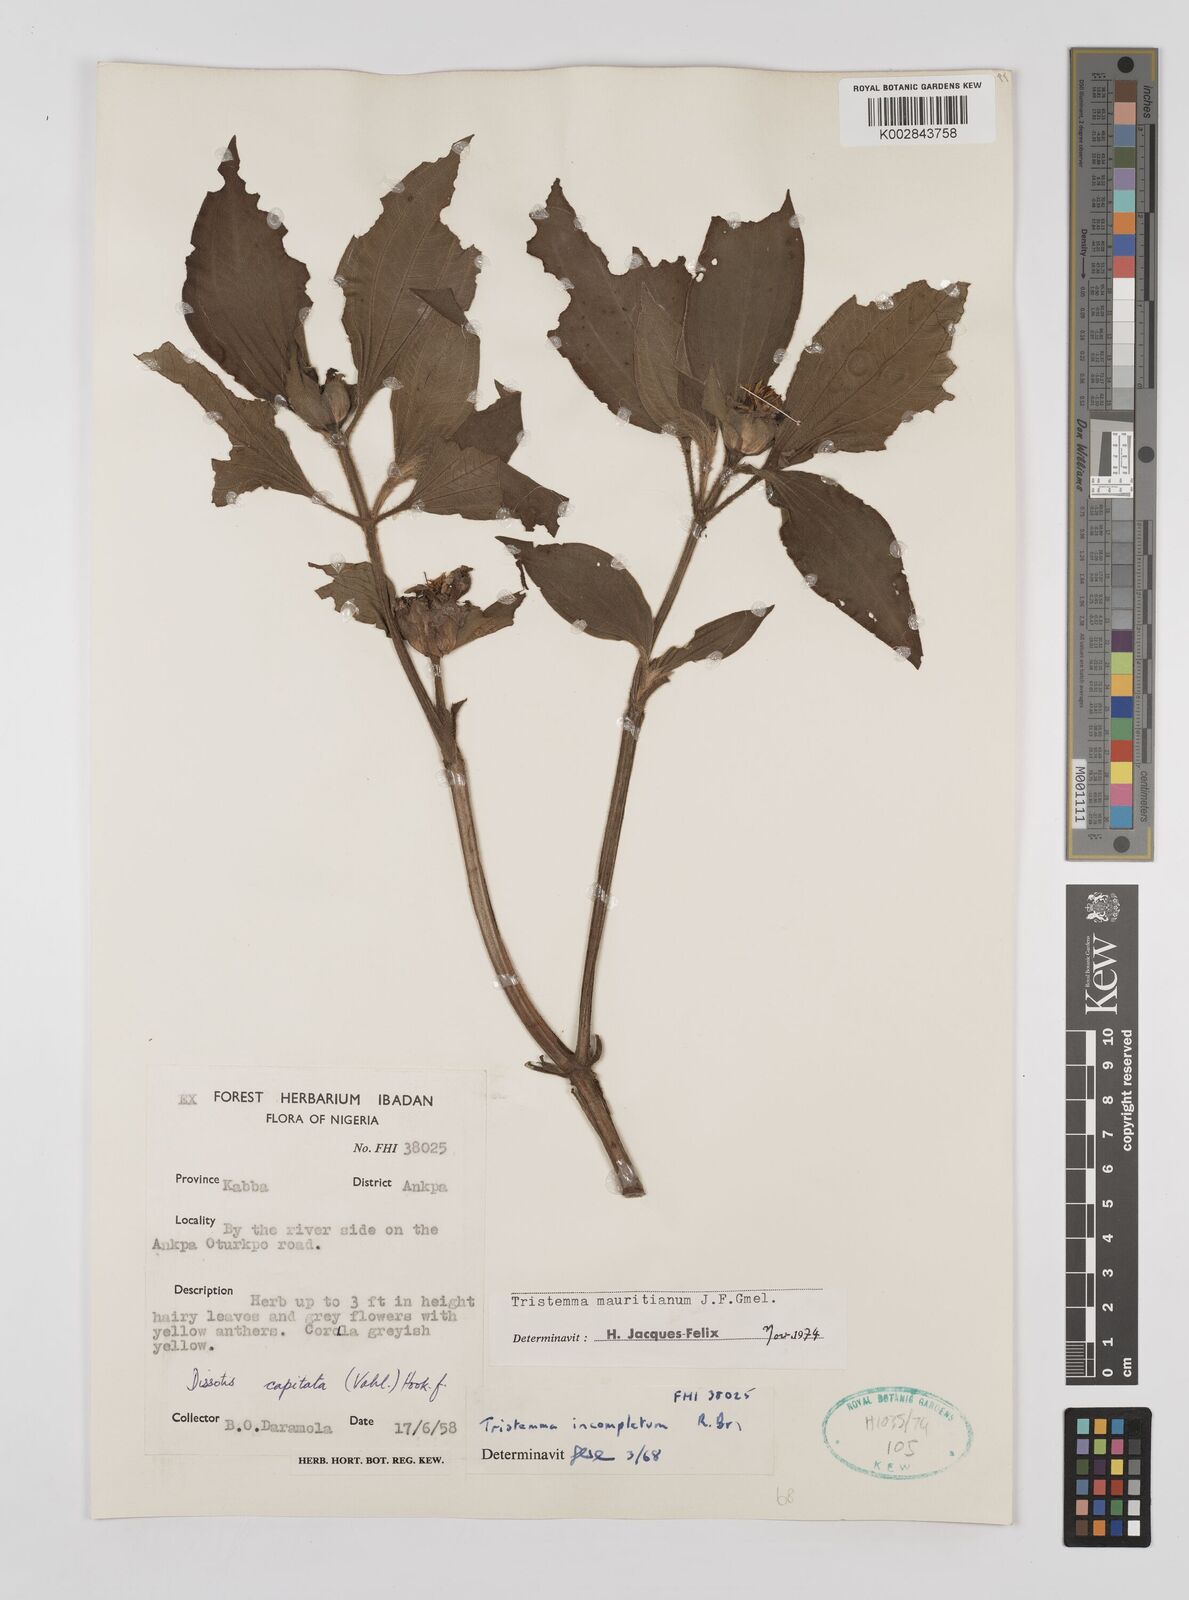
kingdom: Plantae
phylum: Tracheophyta
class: Magnoliopsida
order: Myrtales
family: Melastomataceae
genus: Tristemma
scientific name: Tristemma mauritianum
